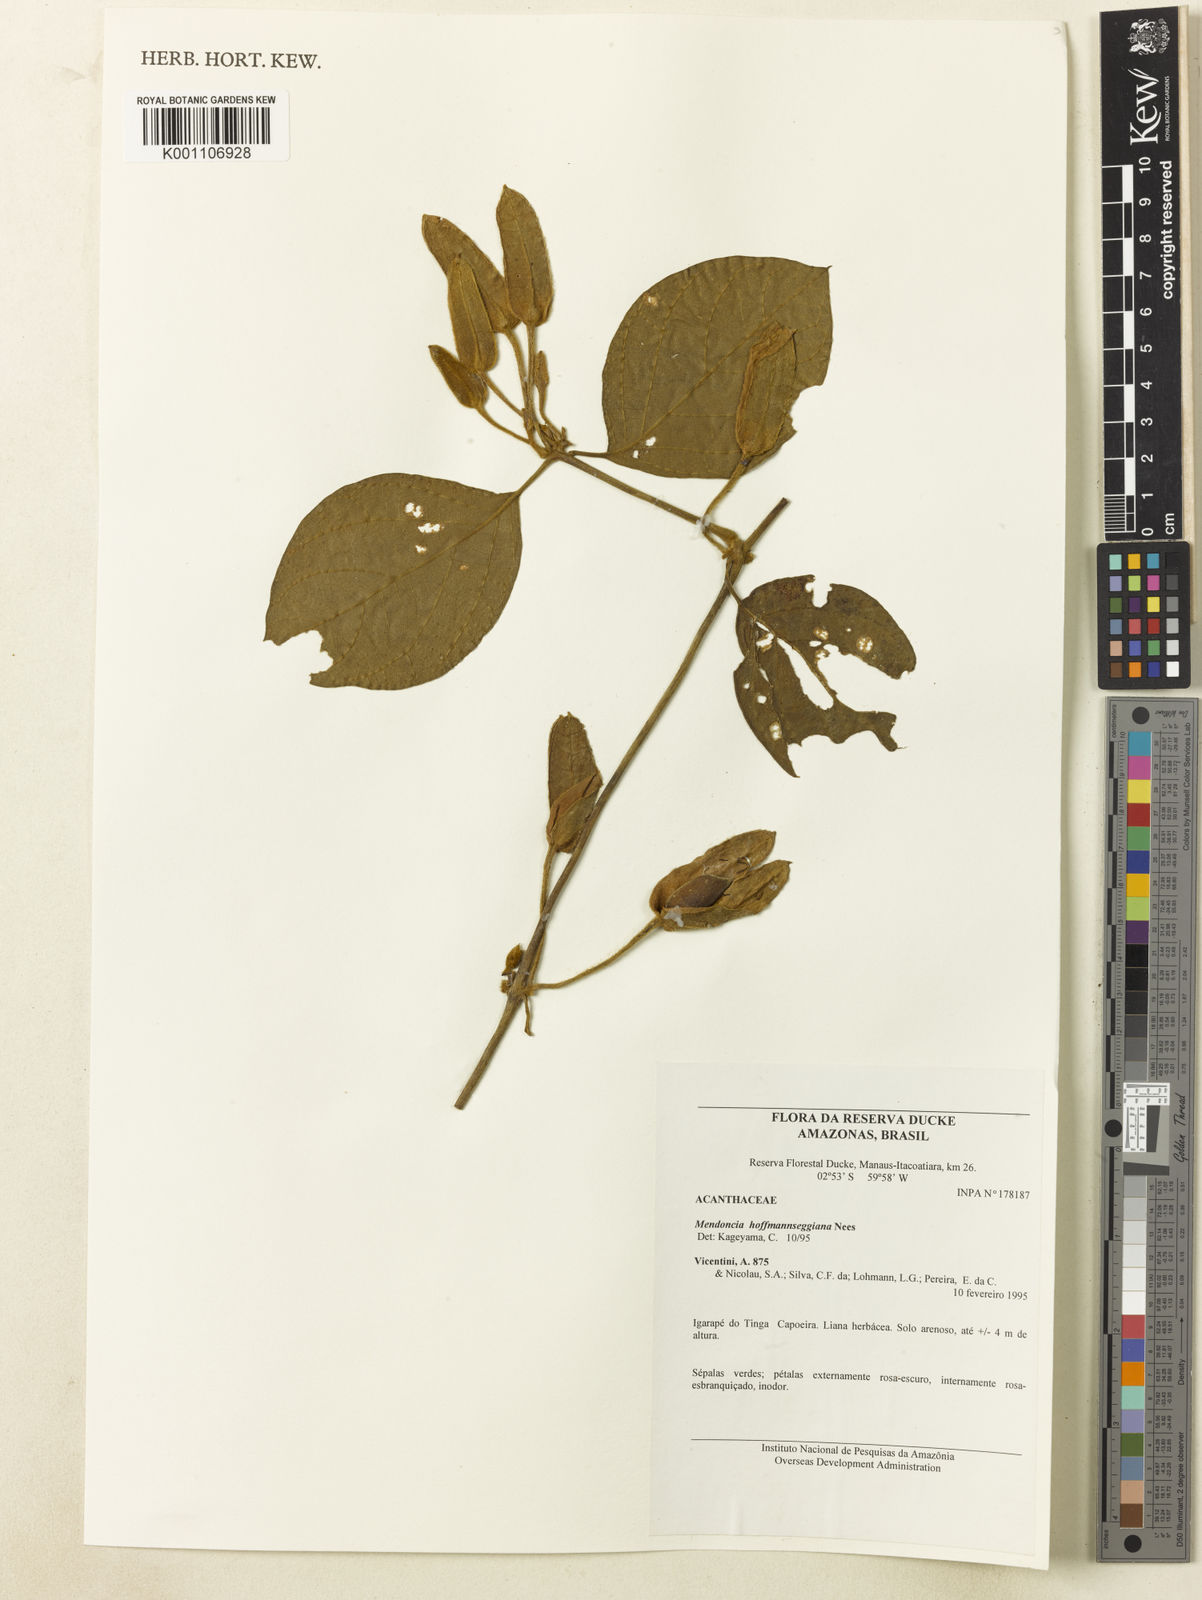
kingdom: Plantae
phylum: Tracheophyta
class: Magnoliopsida
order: Lamiales
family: Acanthaceae
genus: Mendoncia
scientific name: Mendoncia hoffmannseggiana
